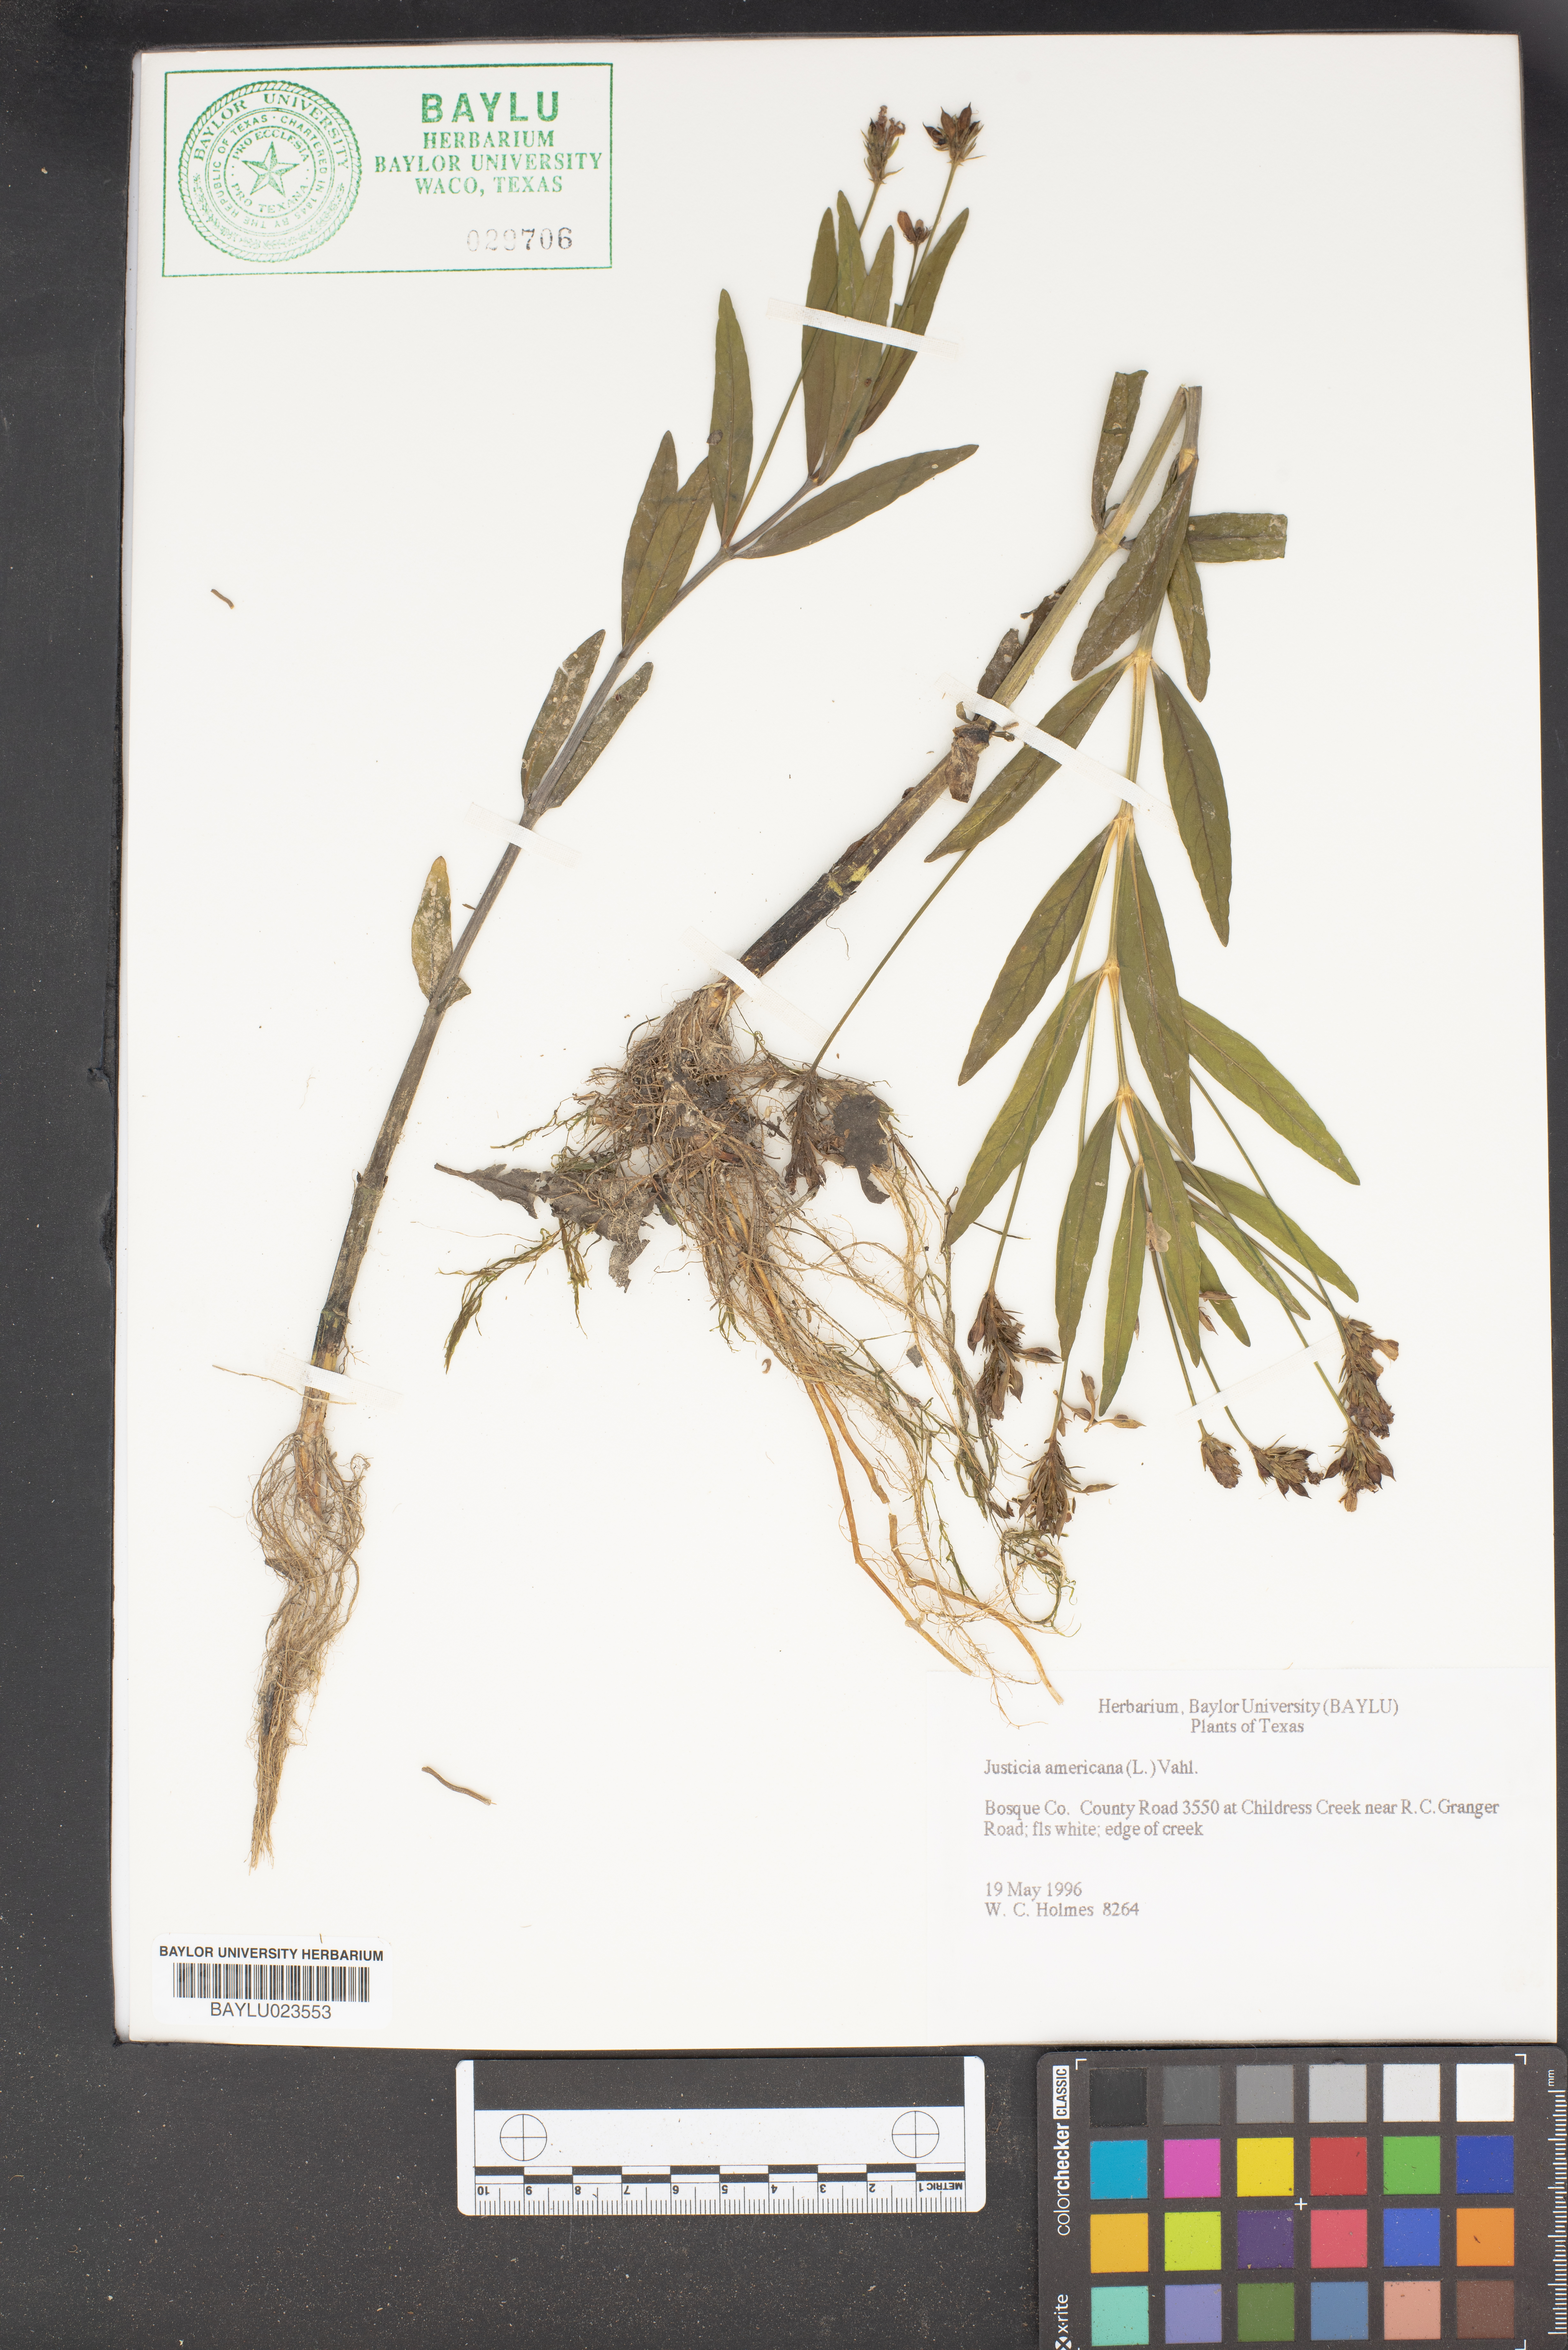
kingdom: Plantae
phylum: Tracheophyta
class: Magnoliopsida
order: Lamiales
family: Acanthaceae
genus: Dianthera
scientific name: Dianthera americana
